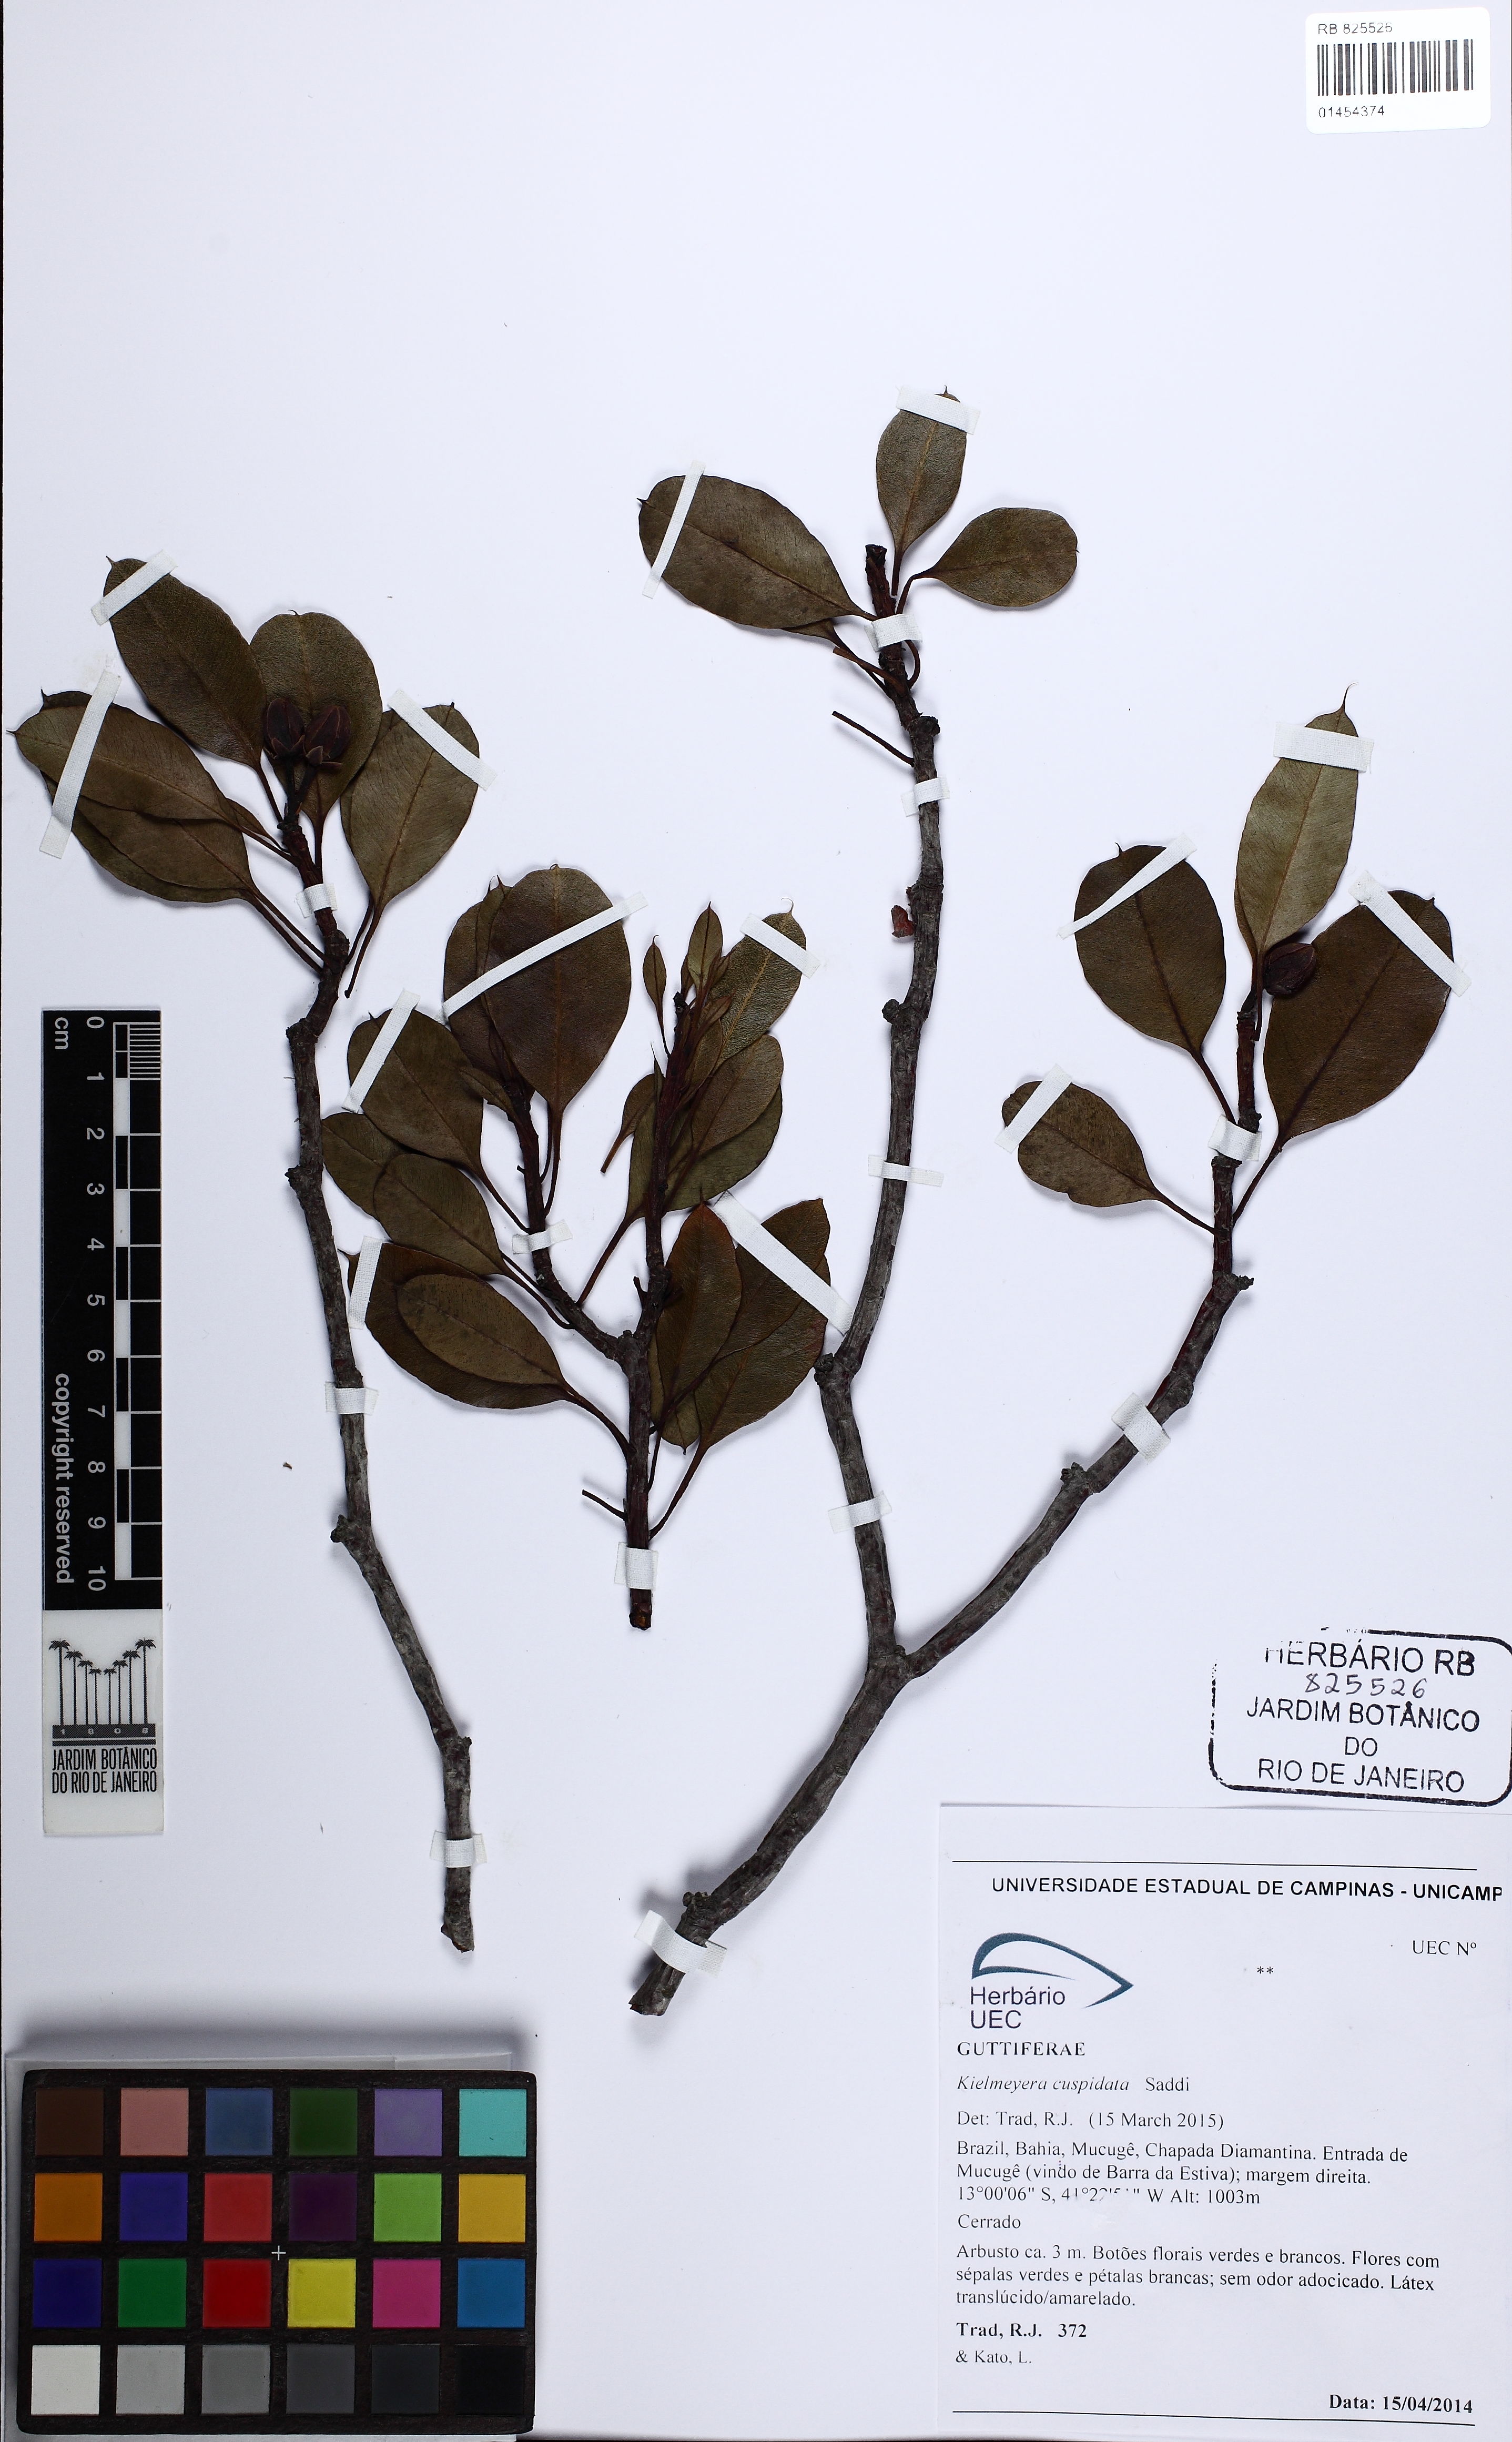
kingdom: Plantae
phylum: Tracheophyta
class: Magnoliopsida
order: Malpighiales
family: Calophyllaceae
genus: Kielmeyera
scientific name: Kielmeyera cuspidata
